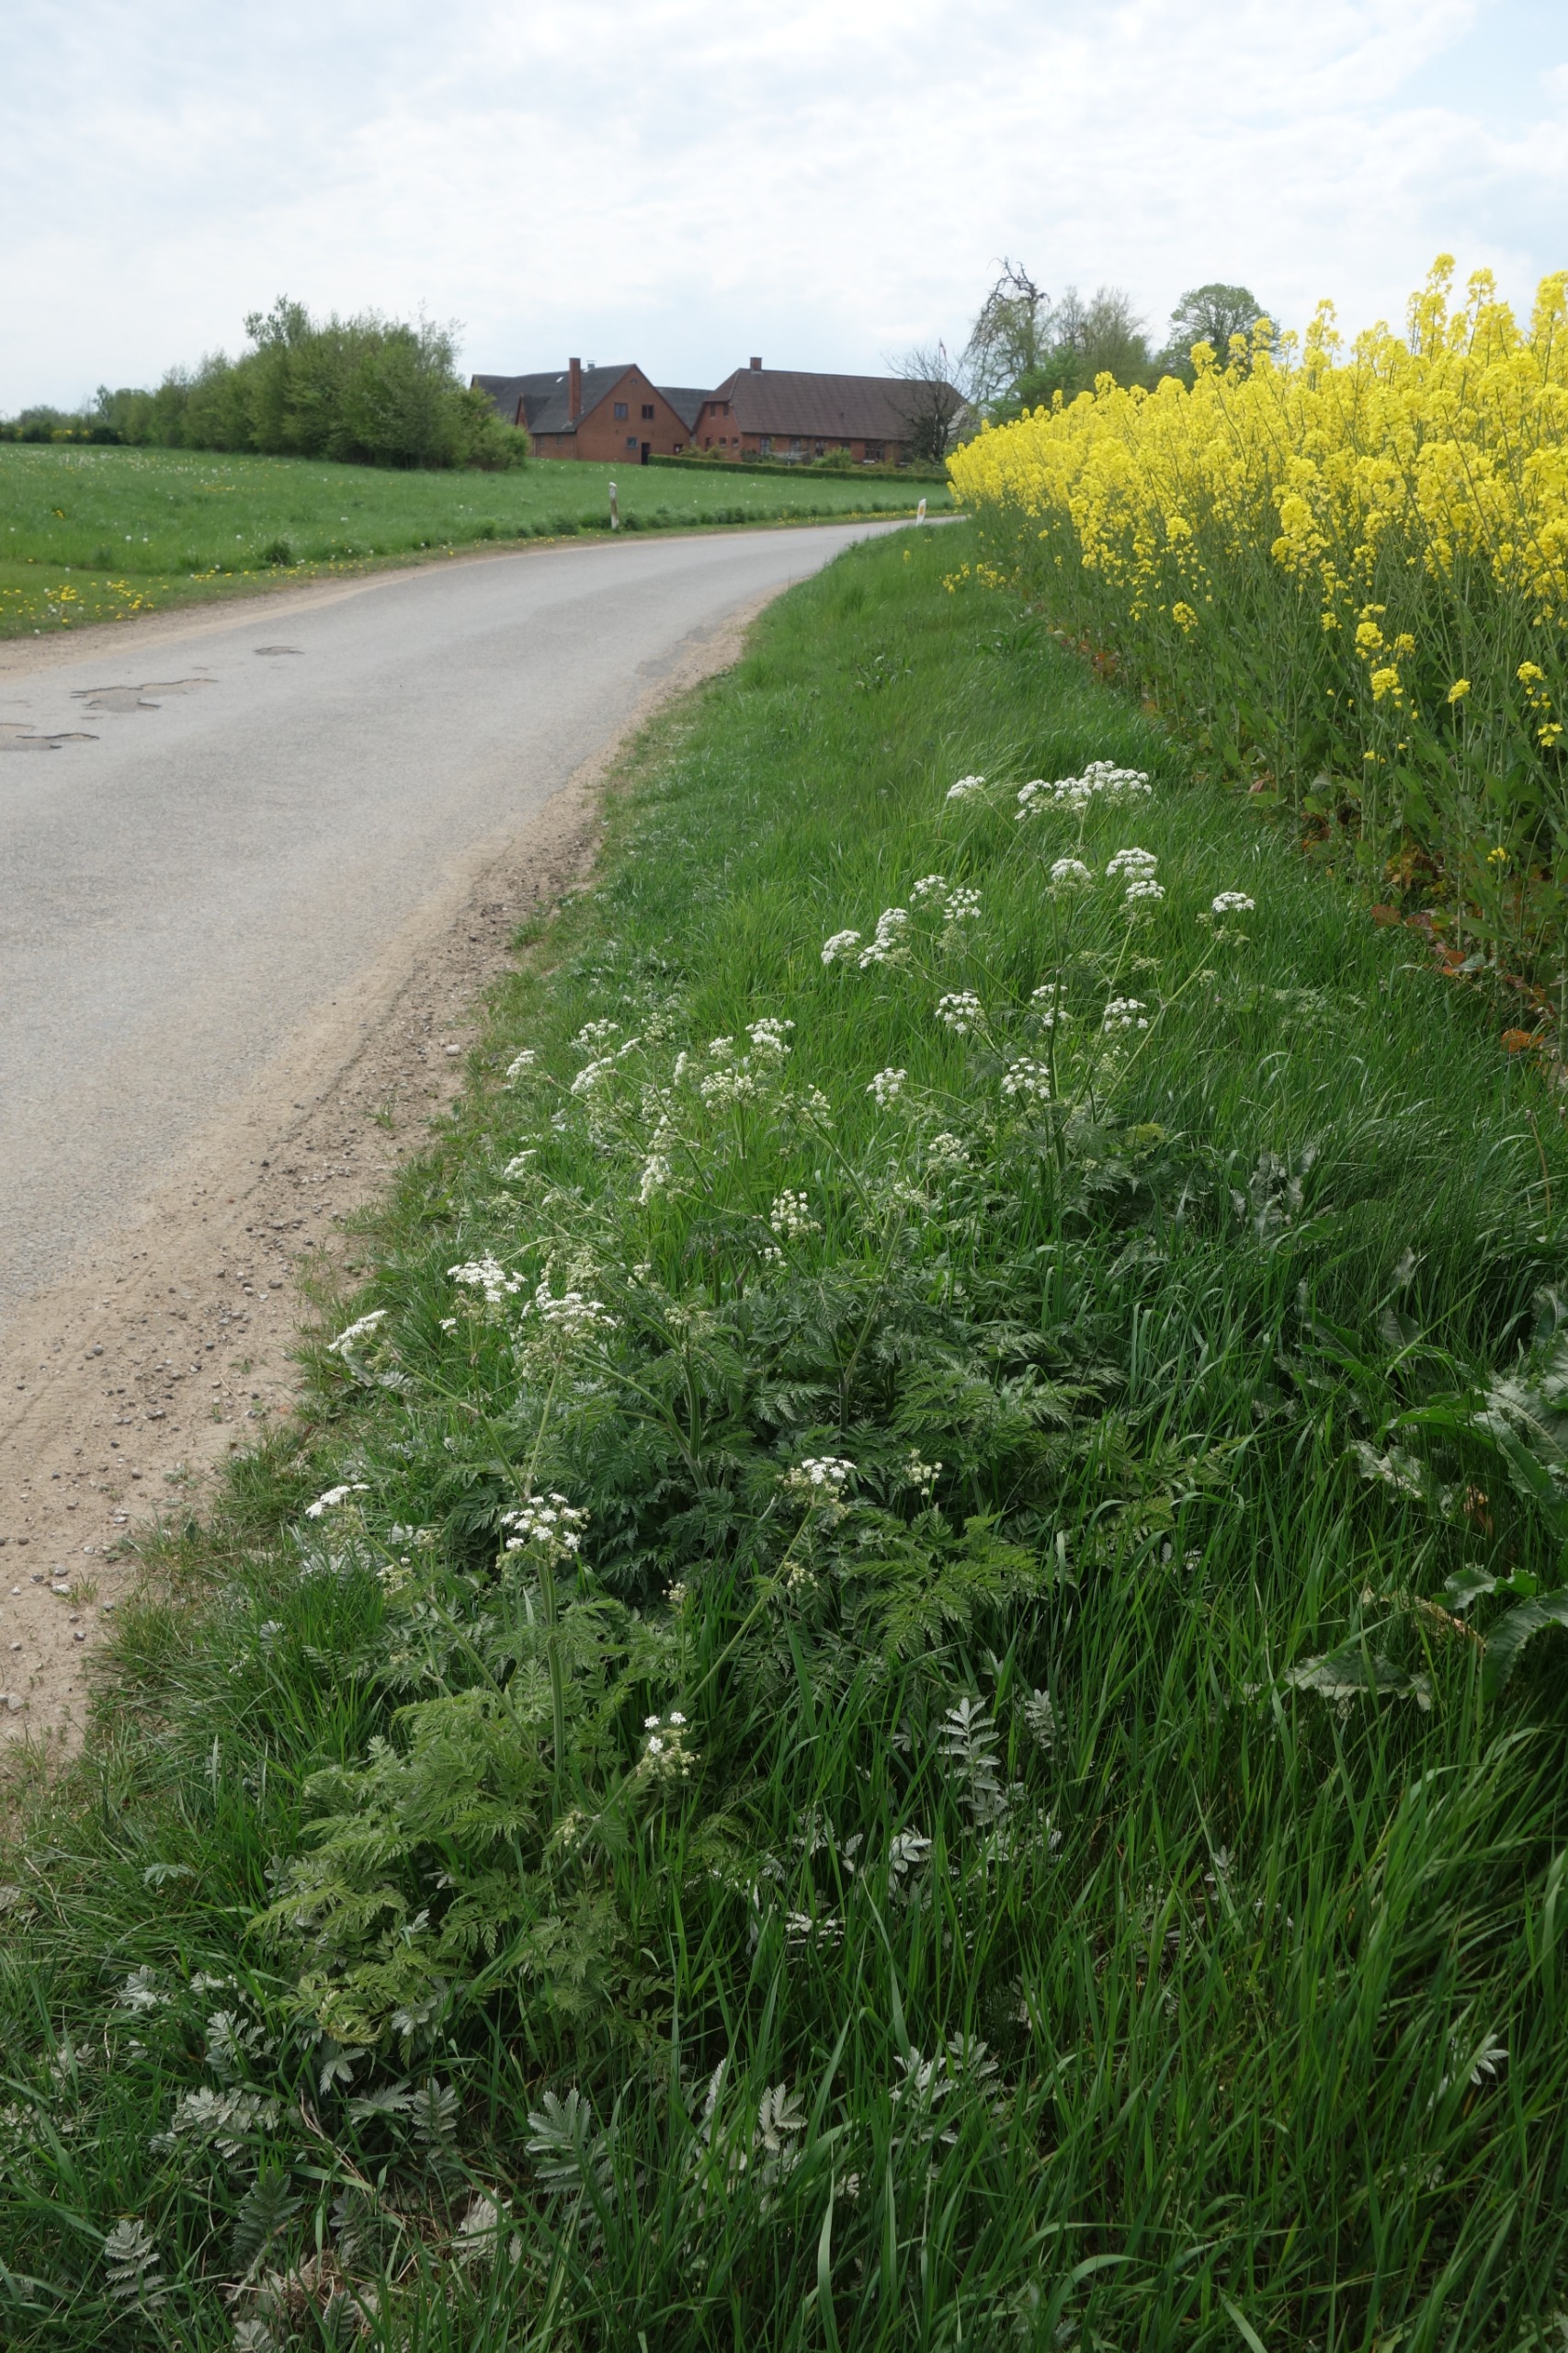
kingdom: Plantae
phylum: Tracheophyta
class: Magnoliopsida
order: Apiales
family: Apiaceae
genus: Anthriscus
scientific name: Anthriscus sylvestris
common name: Vild kørvel
